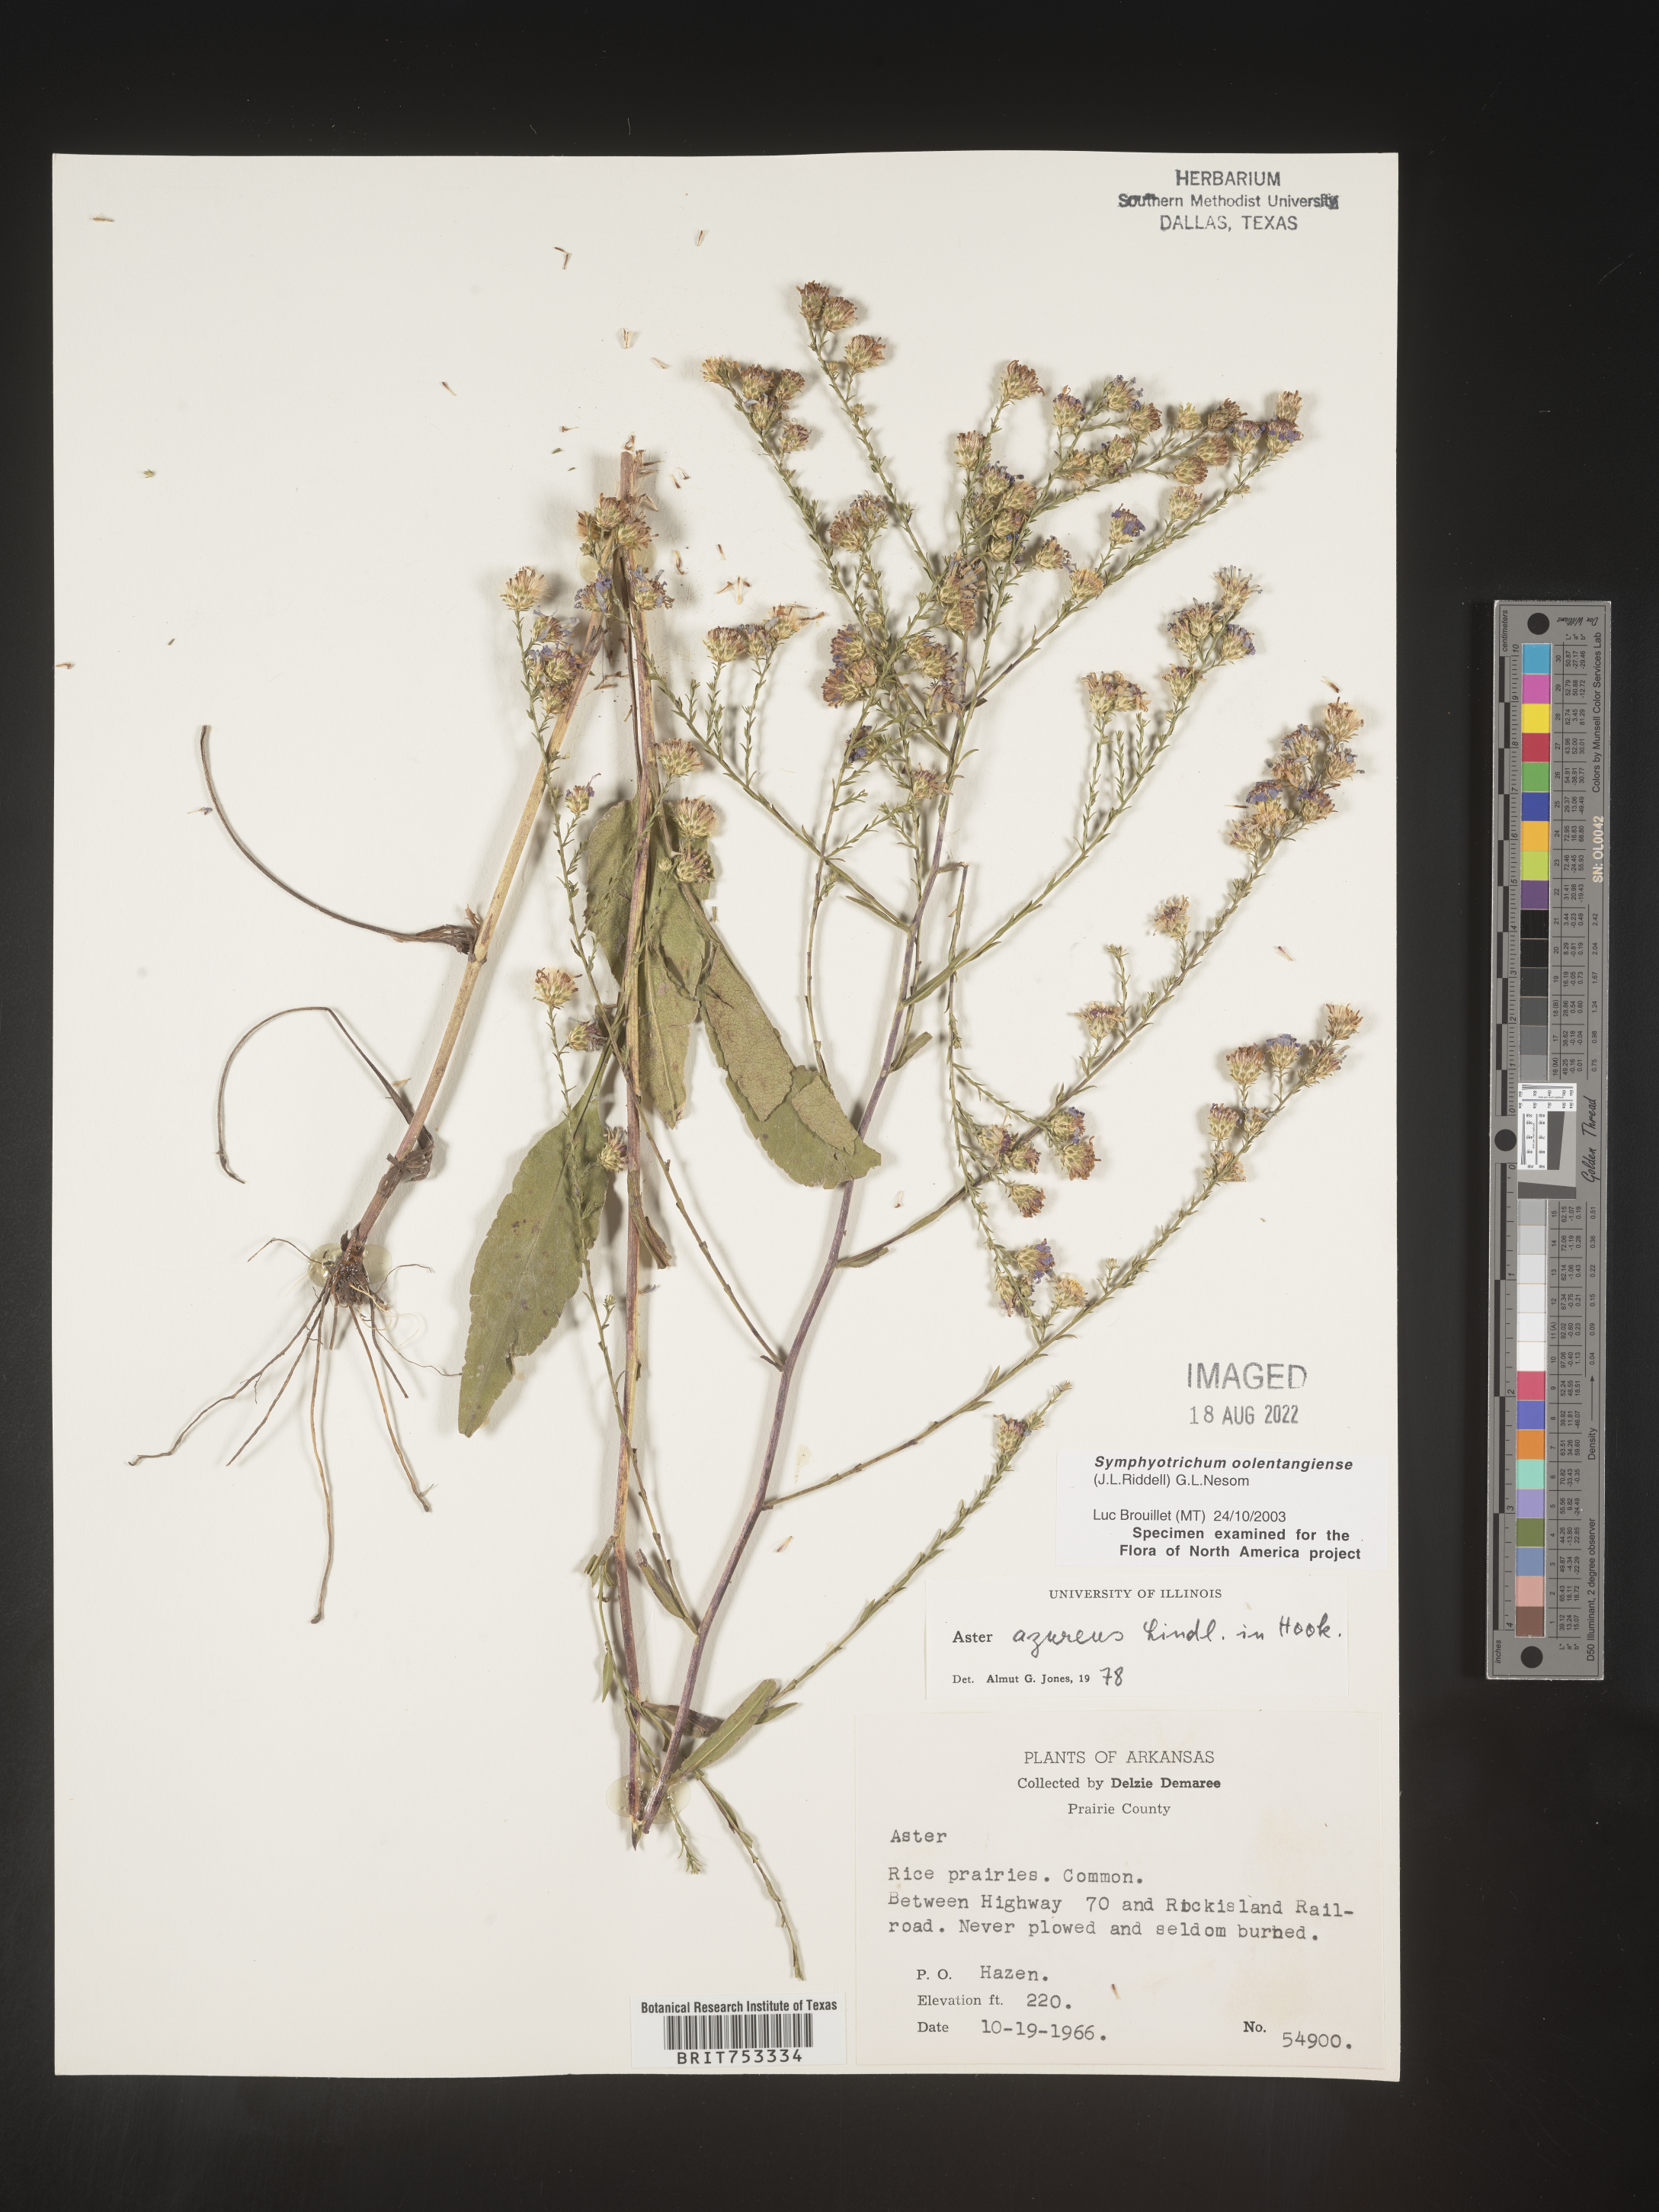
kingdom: Plantae
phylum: Tracheophyta
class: Magnoliopsida
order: Asterales
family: Asteraceae
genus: Symphyotrichum
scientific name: Symphyotrichum oolentangiense
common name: Azure aster
